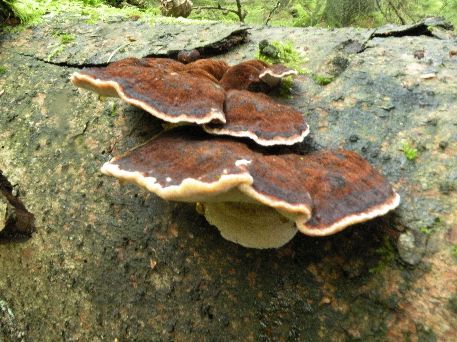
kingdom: Fungi
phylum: Basidiomycota
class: Agaricomycetes
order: Polyporales
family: Ischnodermataceae
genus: Ischnoderma
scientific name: Ischnoderma benzoinum
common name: gran-tjæreporesvamp
